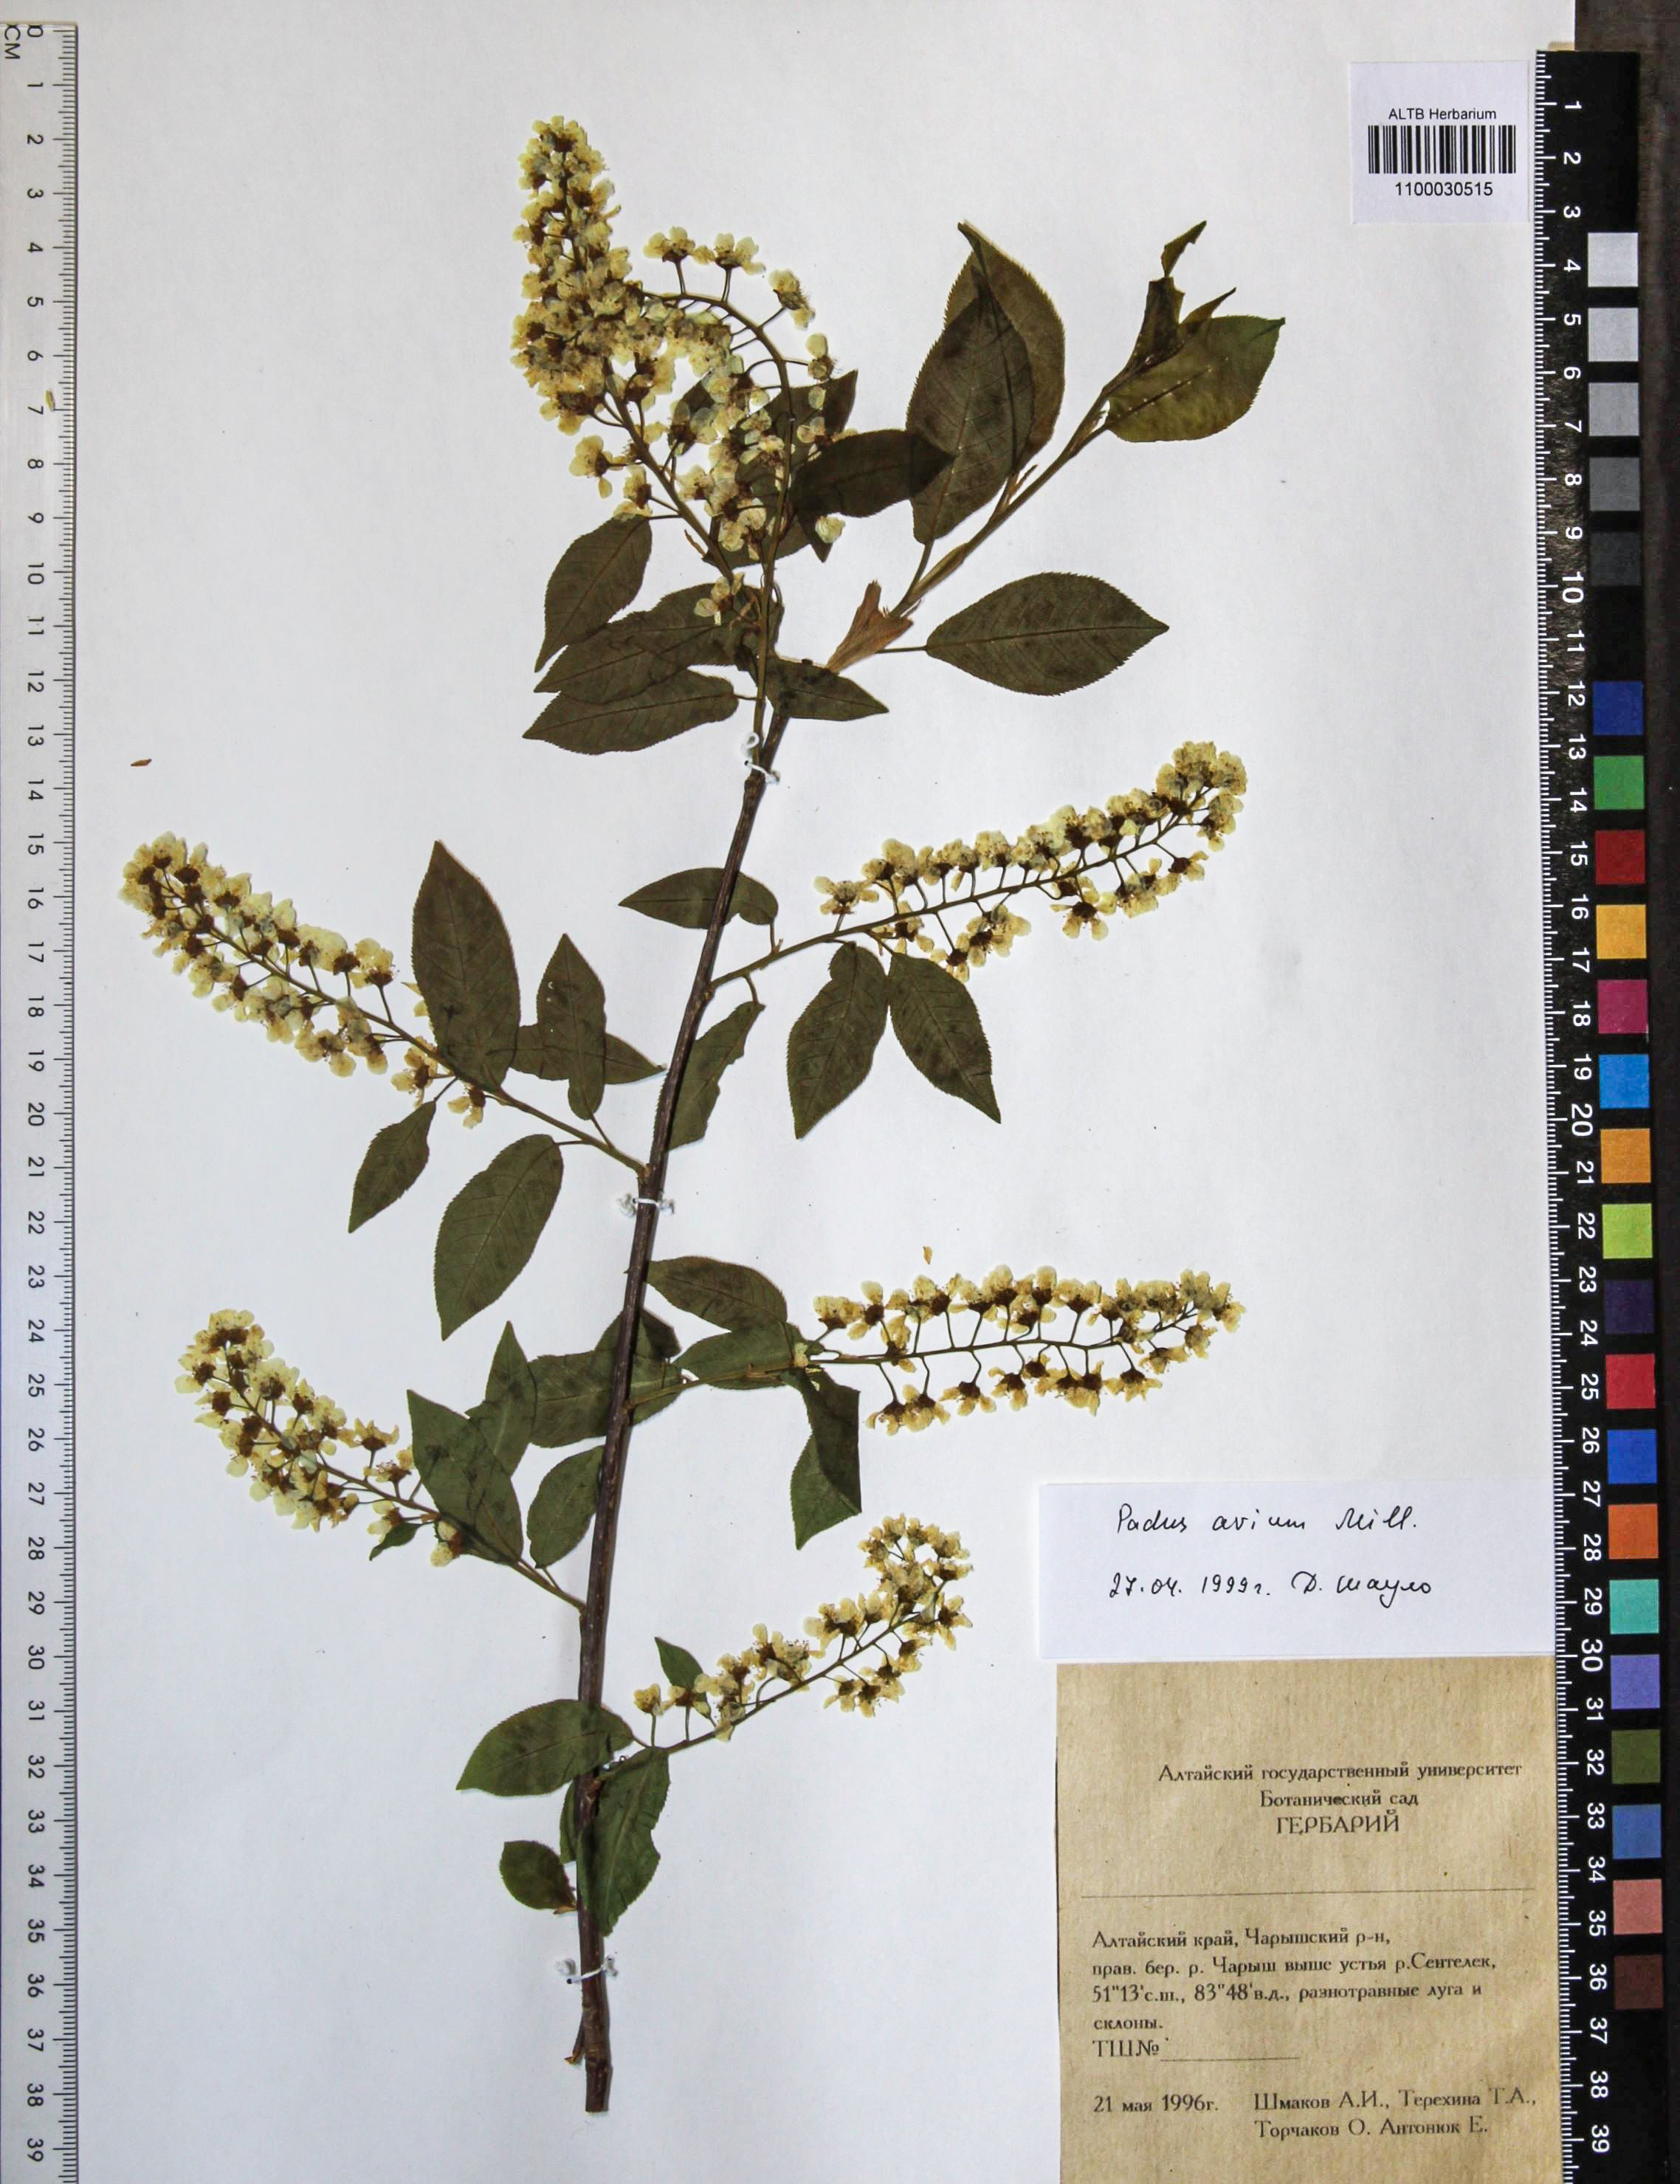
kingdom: Plantae
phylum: Tracheophyta
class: Magnoliopsida
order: Rosales
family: Rosaceae
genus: Prunus
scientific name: Prunus padus
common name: Bird cherry
